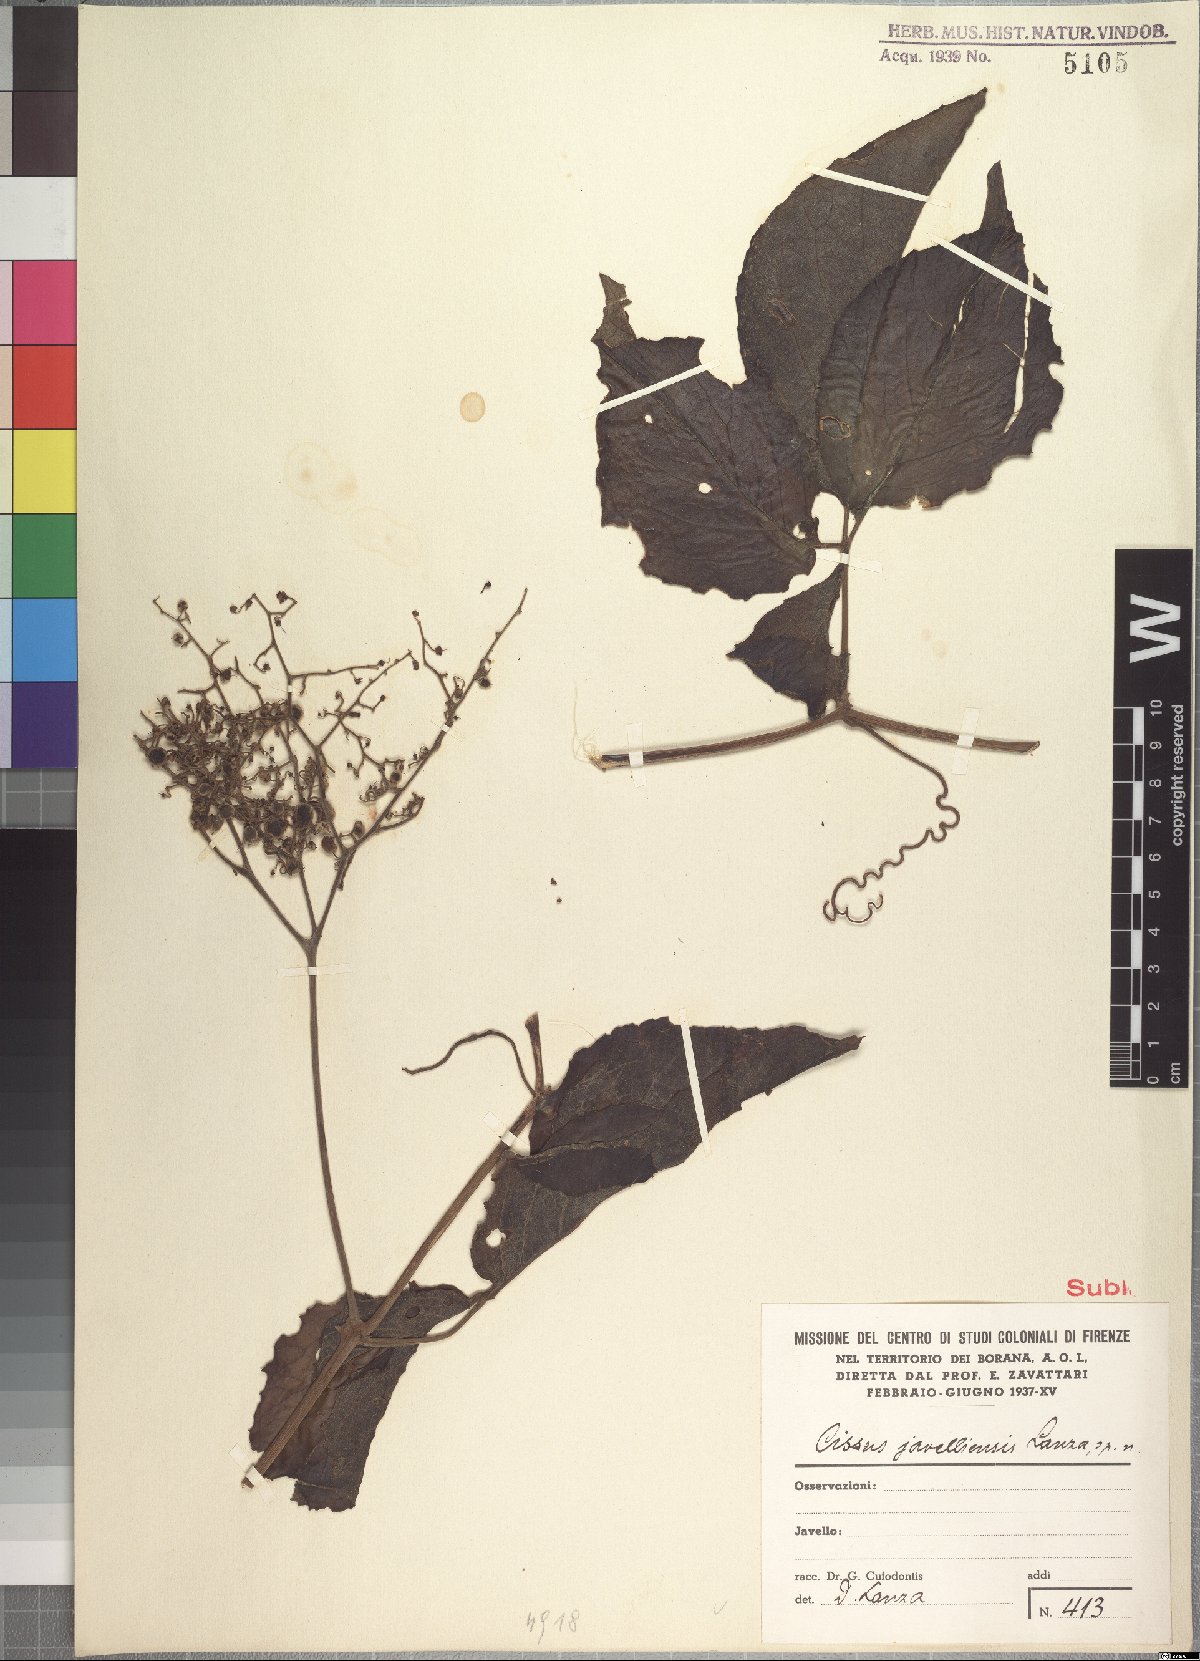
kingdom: Plantae
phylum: Tracheophyta
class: Magnoliopsida
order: Vitales
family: Vitaceae
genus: Cyphostemma
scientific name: Cyphostemma cyphopetalum
